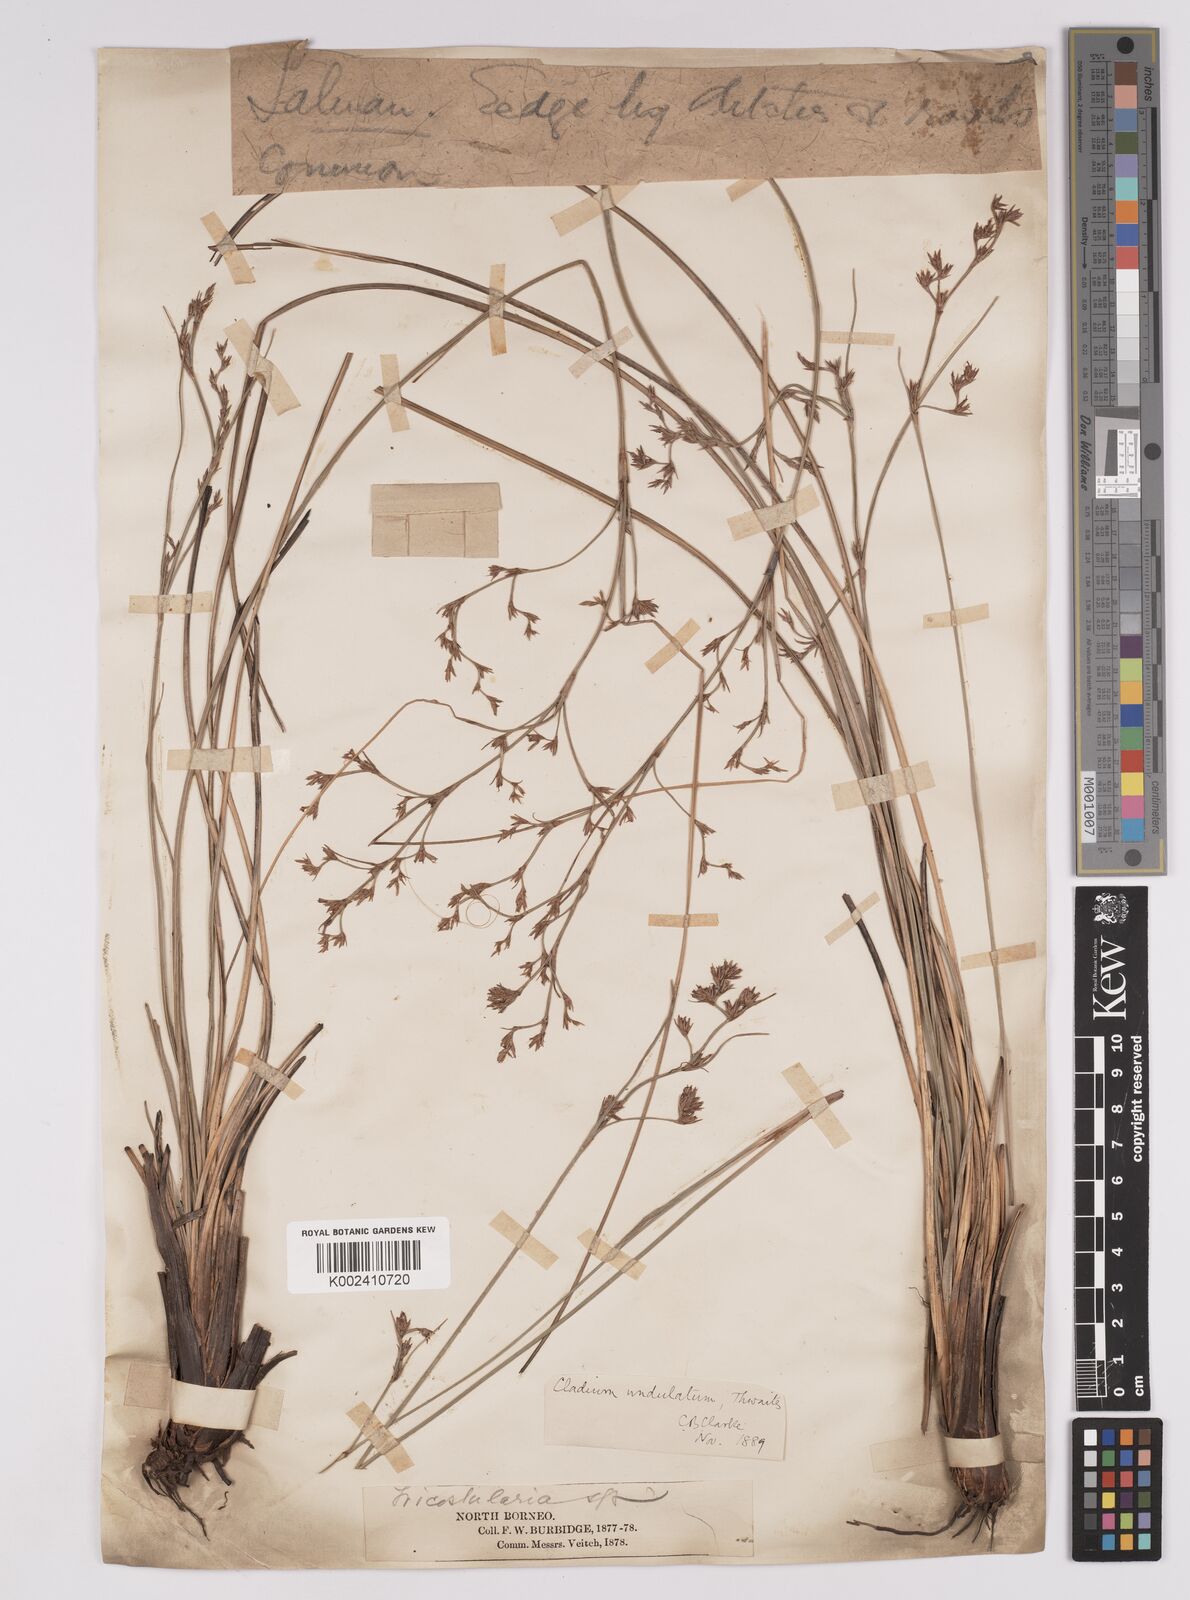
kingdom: Plantae
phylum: Tracheophyta
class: Liliopsida
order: Poales
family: Cyperaceae
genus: Anthelepis
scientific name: Anthelepis undulata
